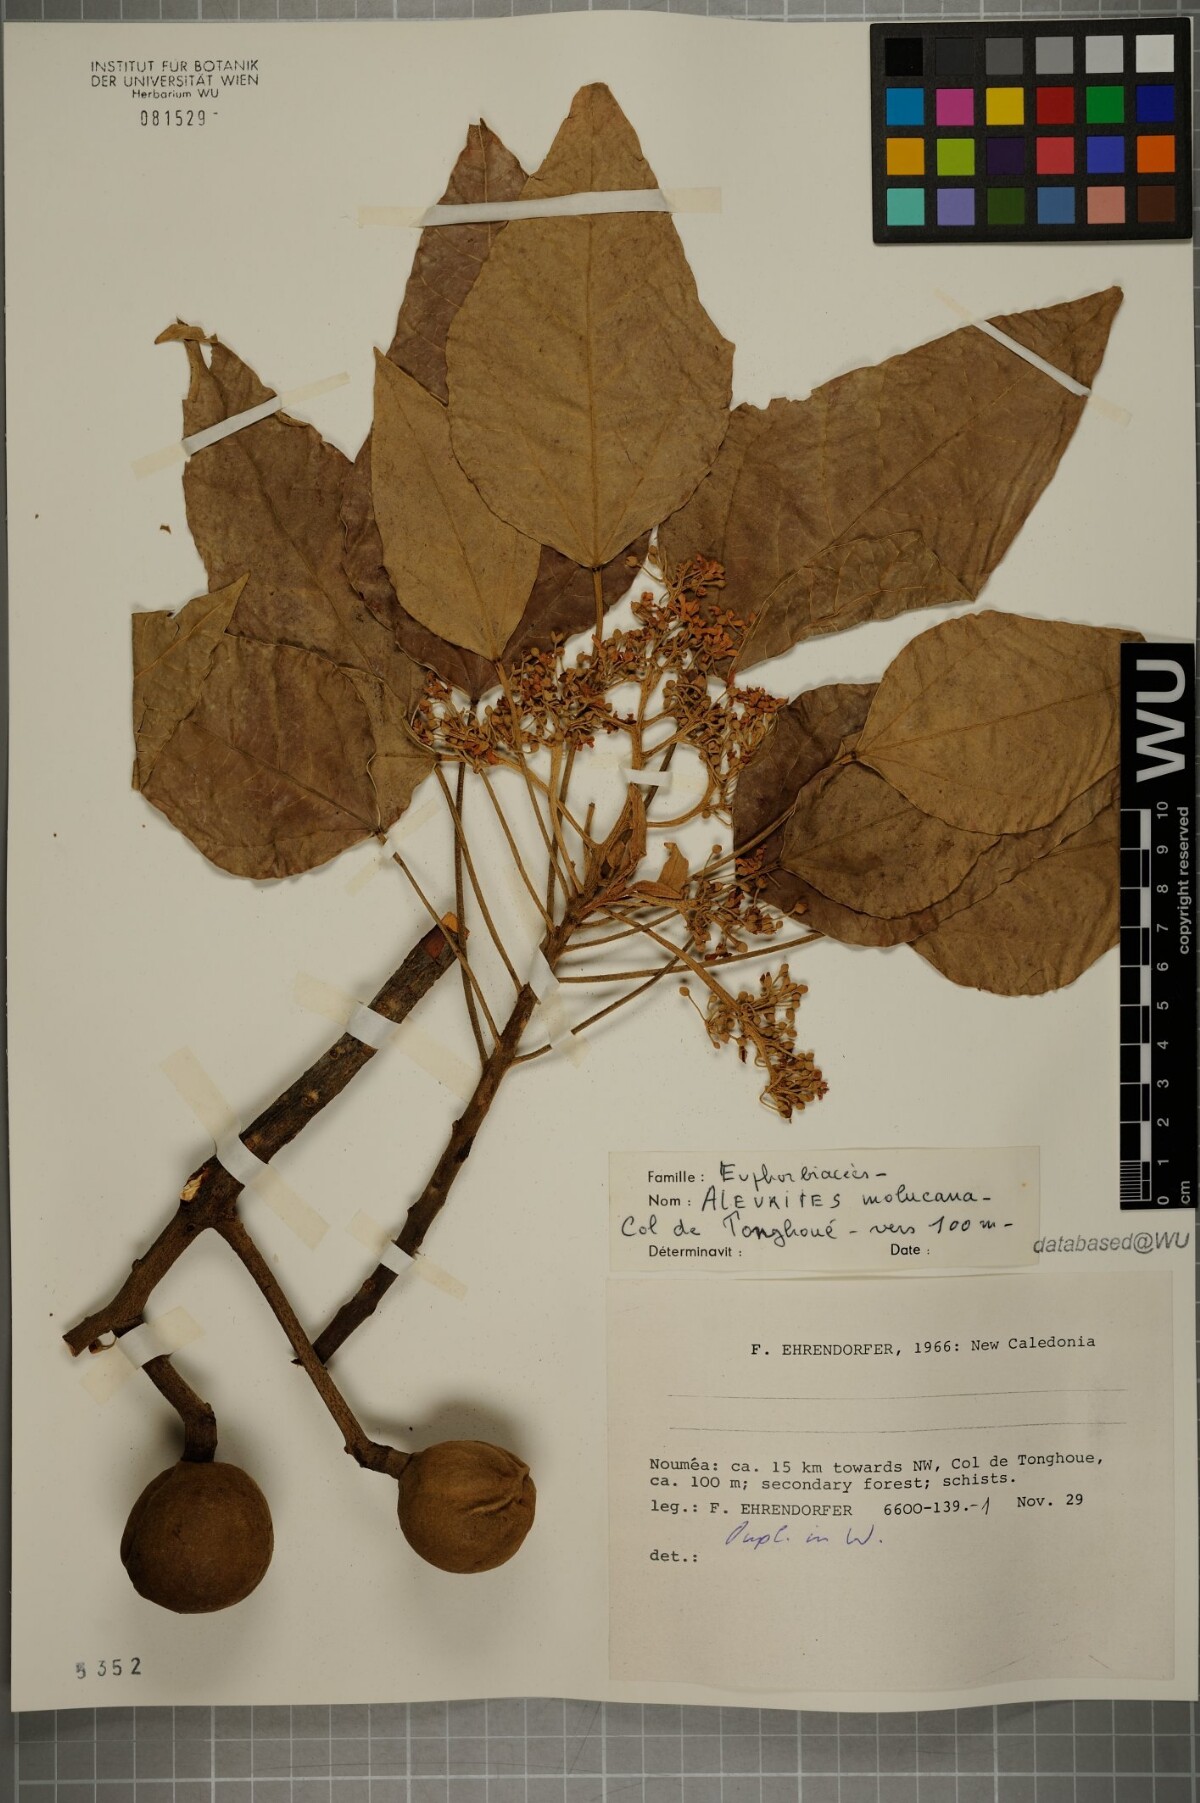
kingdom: Plantae
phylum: Tracheophyta
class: Magnoliopsida
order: Malpighiales
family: Euphorbiaceae
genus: Aleurites
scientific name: Aleurites moluccanus
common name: Candlenut tree
